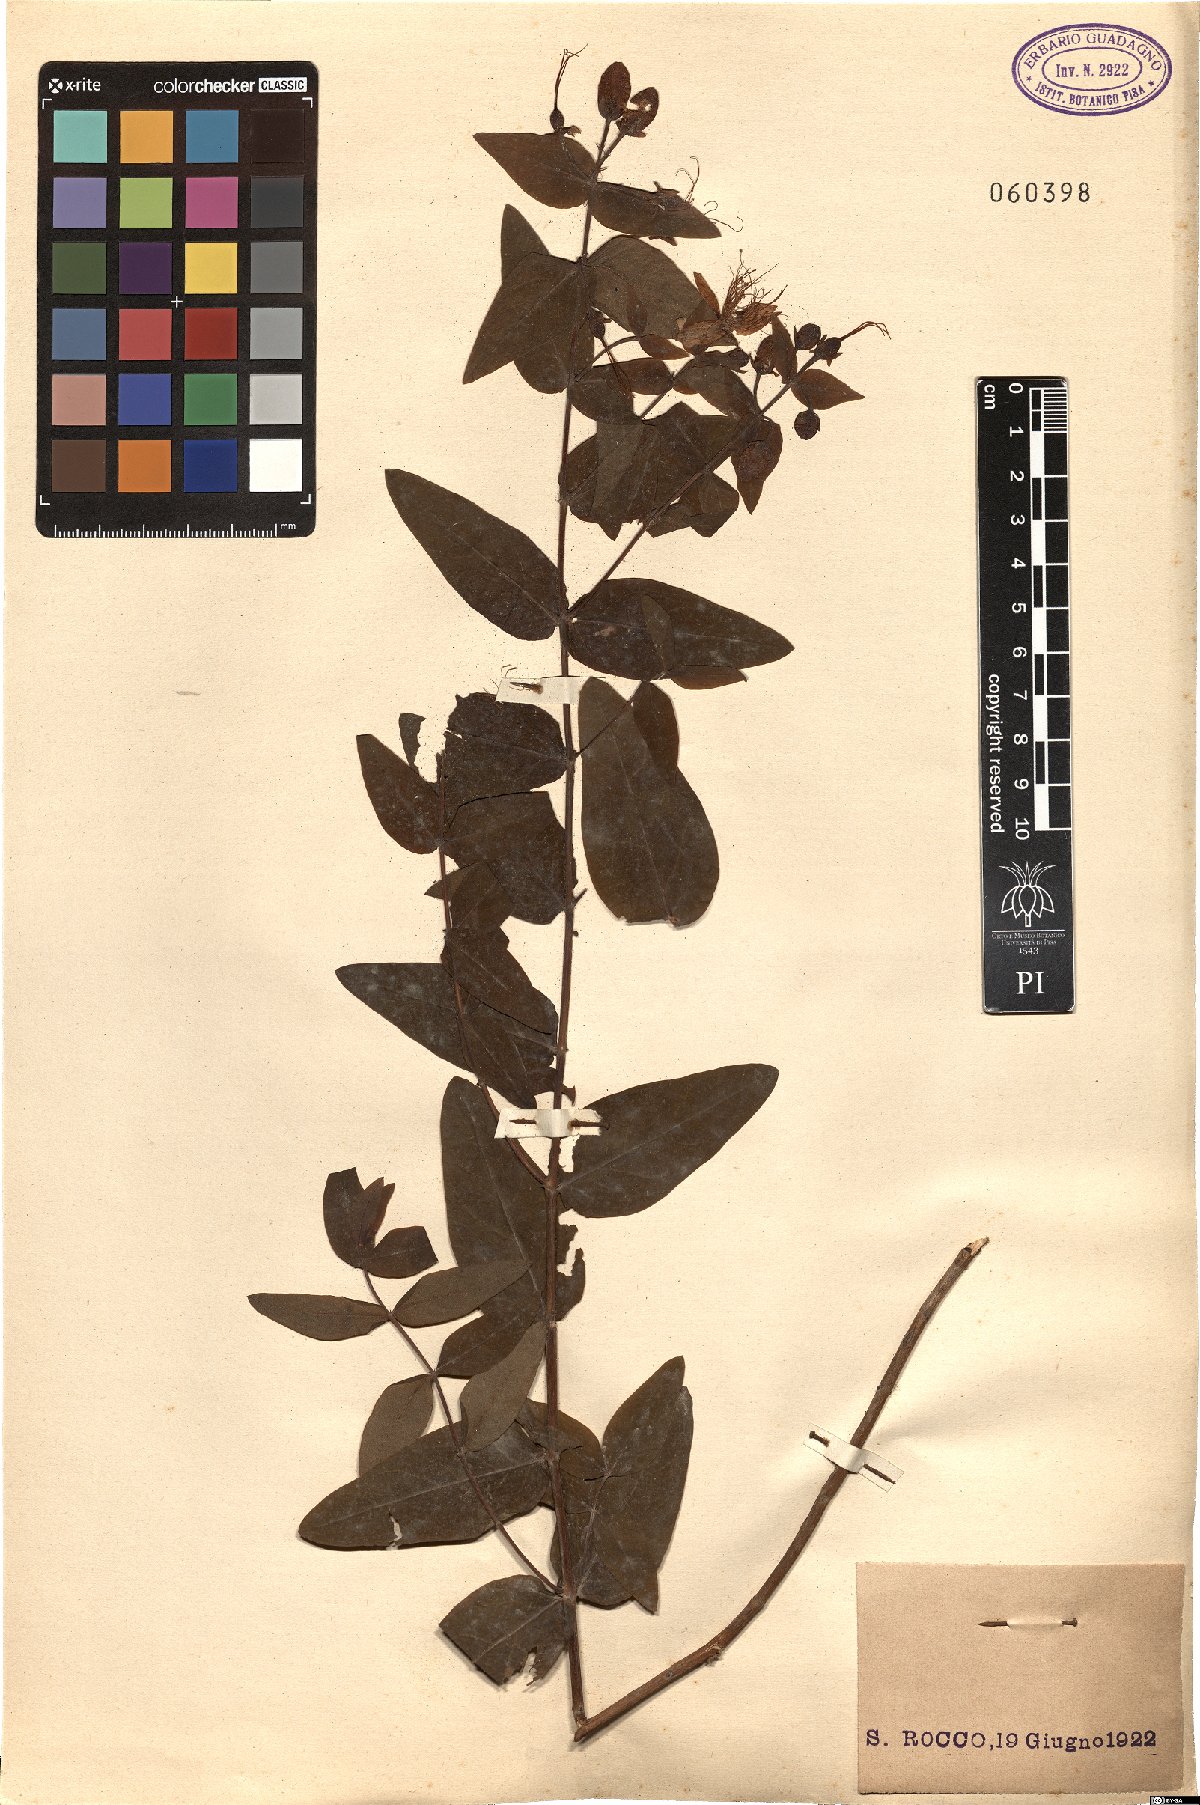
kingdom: Plantae
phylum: Tracheophyta
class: Magnoliopsida
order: Malpighiales
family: Hypericaceae
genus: Hypericum
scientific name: Hypericum hircinum
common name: Stinking tutsan
